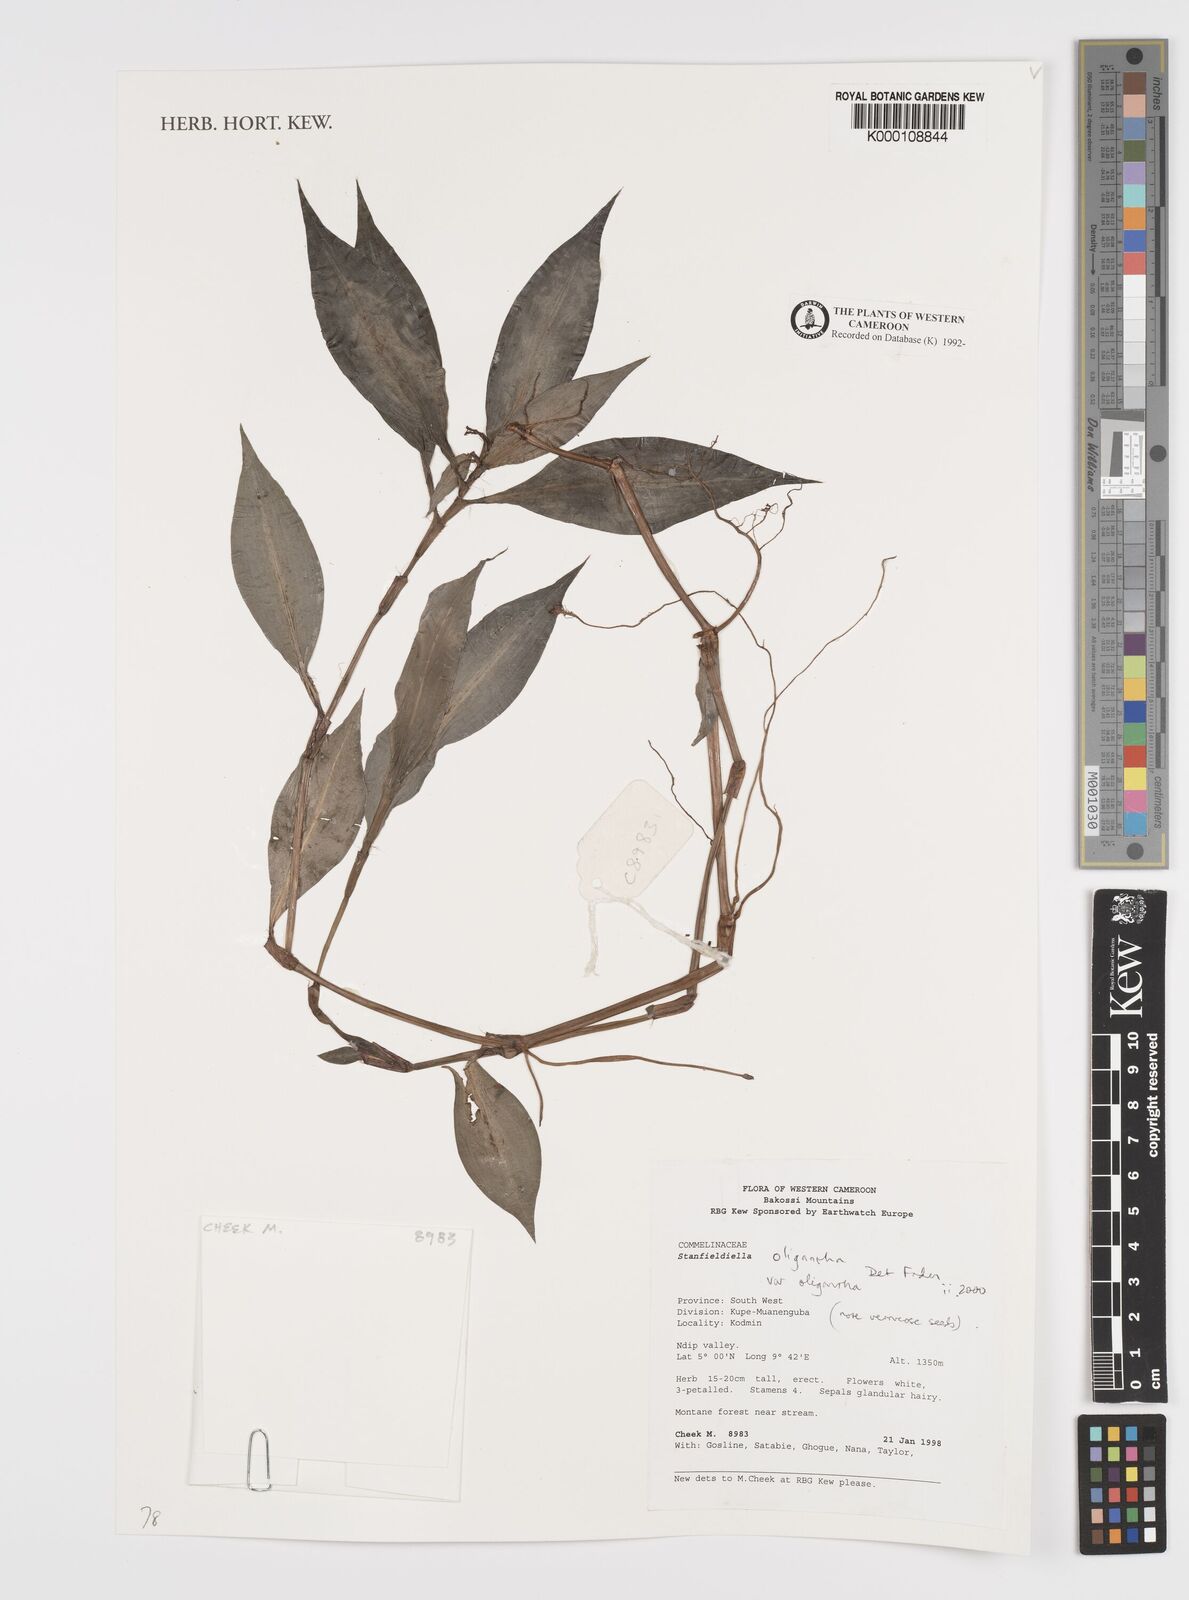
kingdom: Plantae
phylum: Tracheophyta
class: Liliopsida
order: Commelinales
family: Commelinaceae
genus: Stanfieldiella
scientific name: Stanfieldiella oligantha
